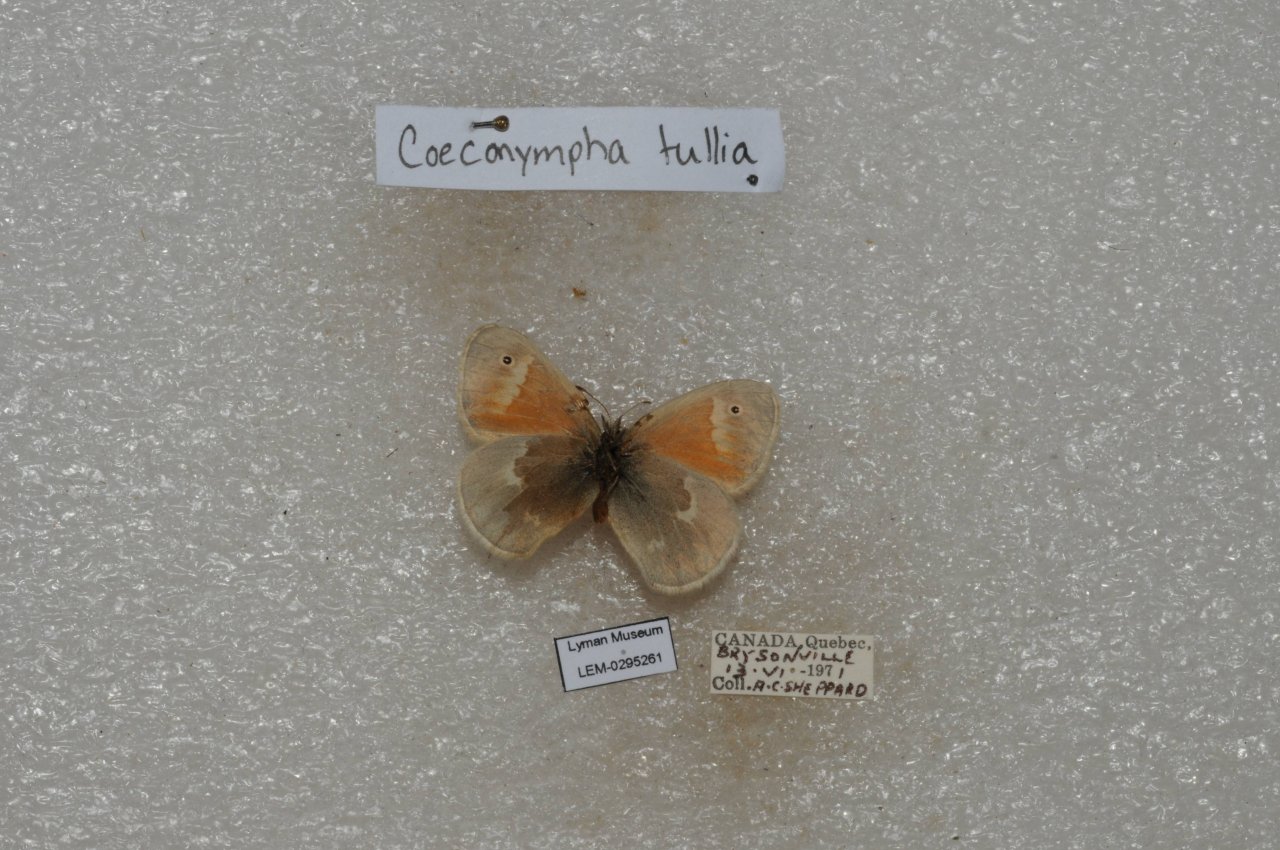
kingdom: Animalia
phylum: Arthropoda
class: Insecta
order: Lepidoptera
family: Nymphalidae
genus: Coenonympha
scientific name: Coenonympha tullia
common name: Large Heath
